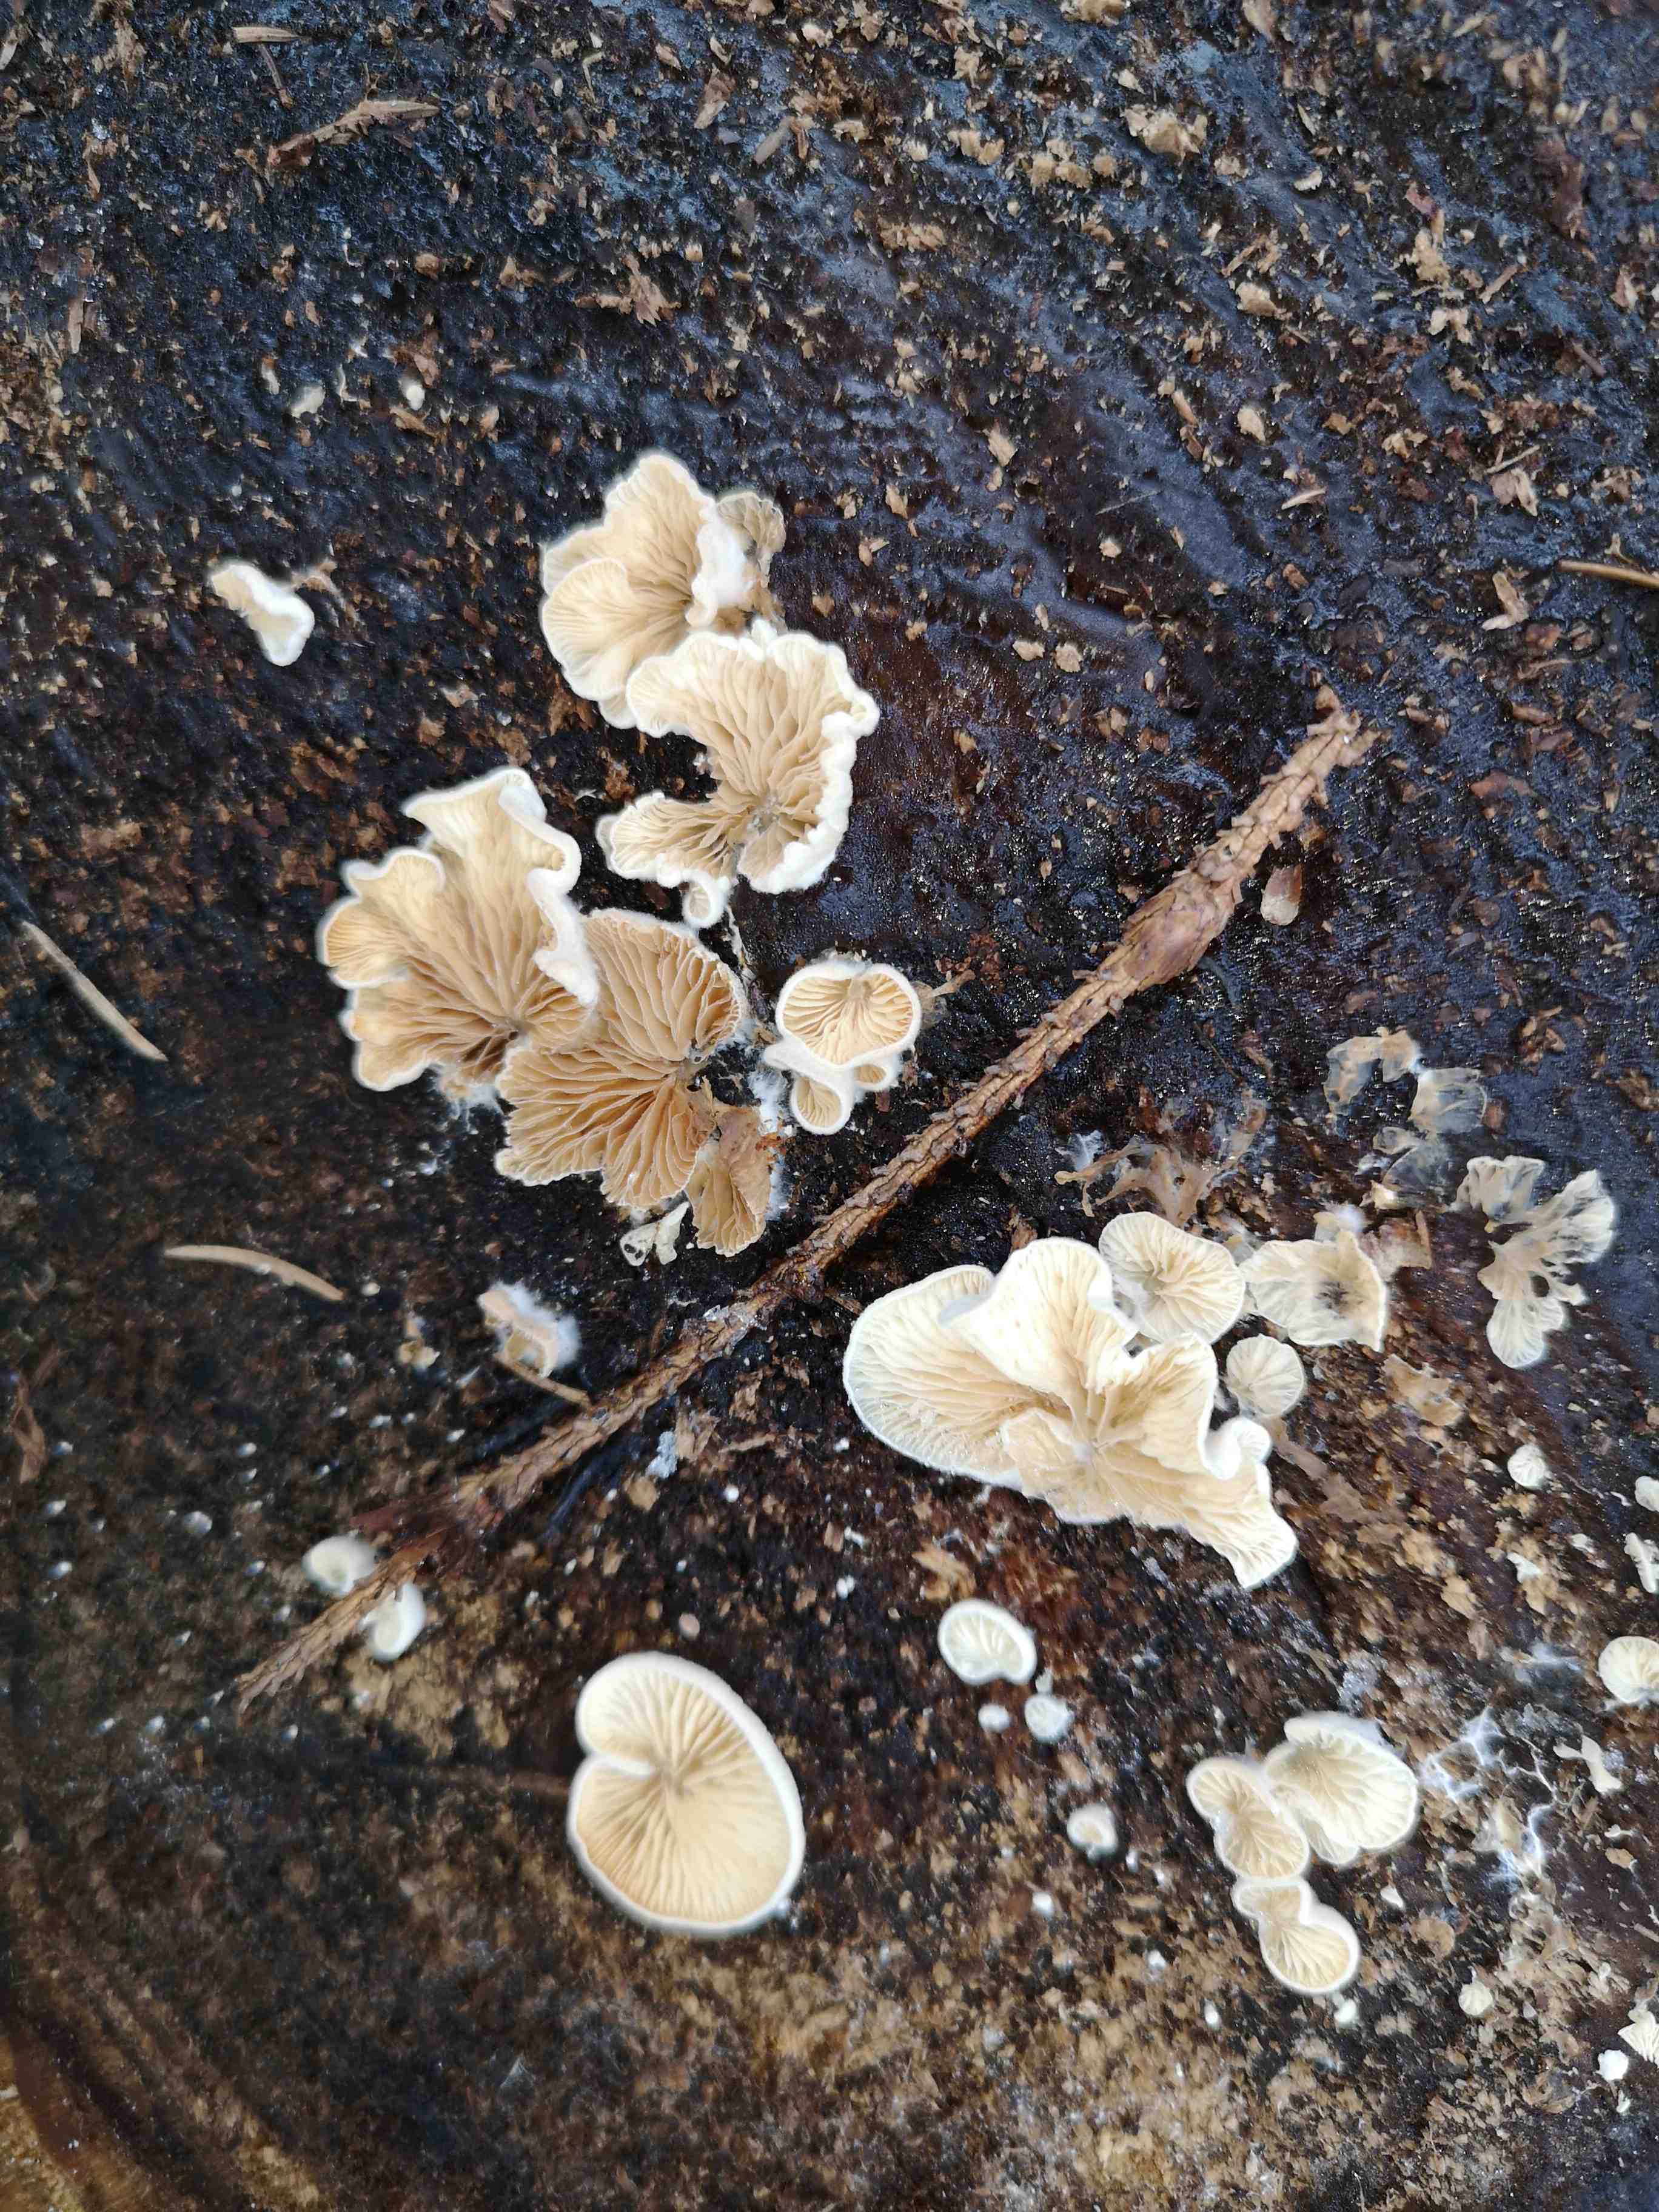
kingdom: Fungi
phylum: Basidiomycota
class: Agaricomycetes
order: Agaricales
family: Crepidotaceae
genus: Crepidotus
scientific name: Crepidotus
